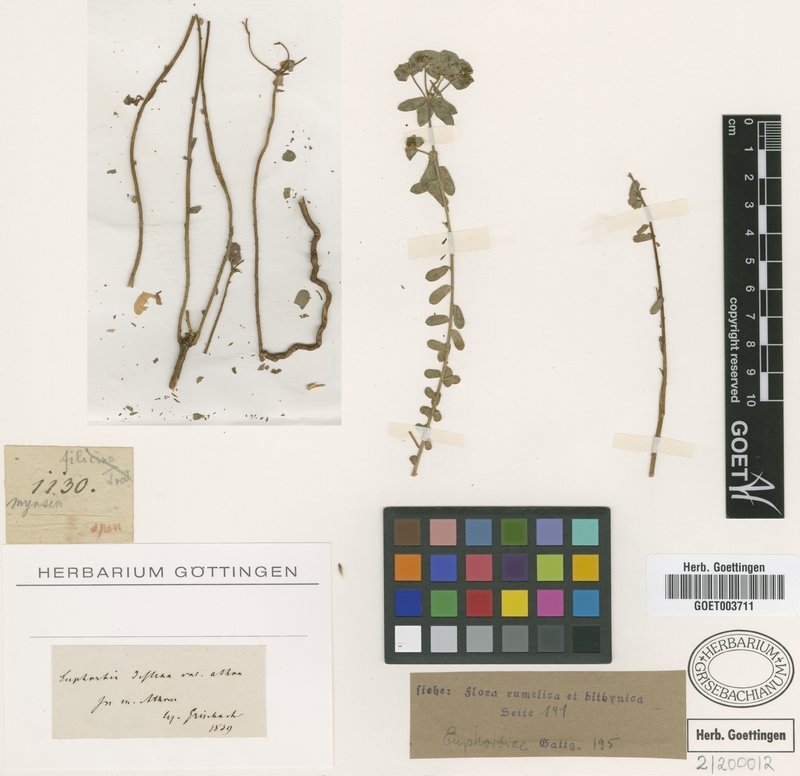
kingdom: Plantae
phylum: Tracheophyta
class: Magnoliopsida
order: Malpighiales
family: Euphorbiaceae
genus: Euphorbia
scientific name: Euphorbia deflexa
